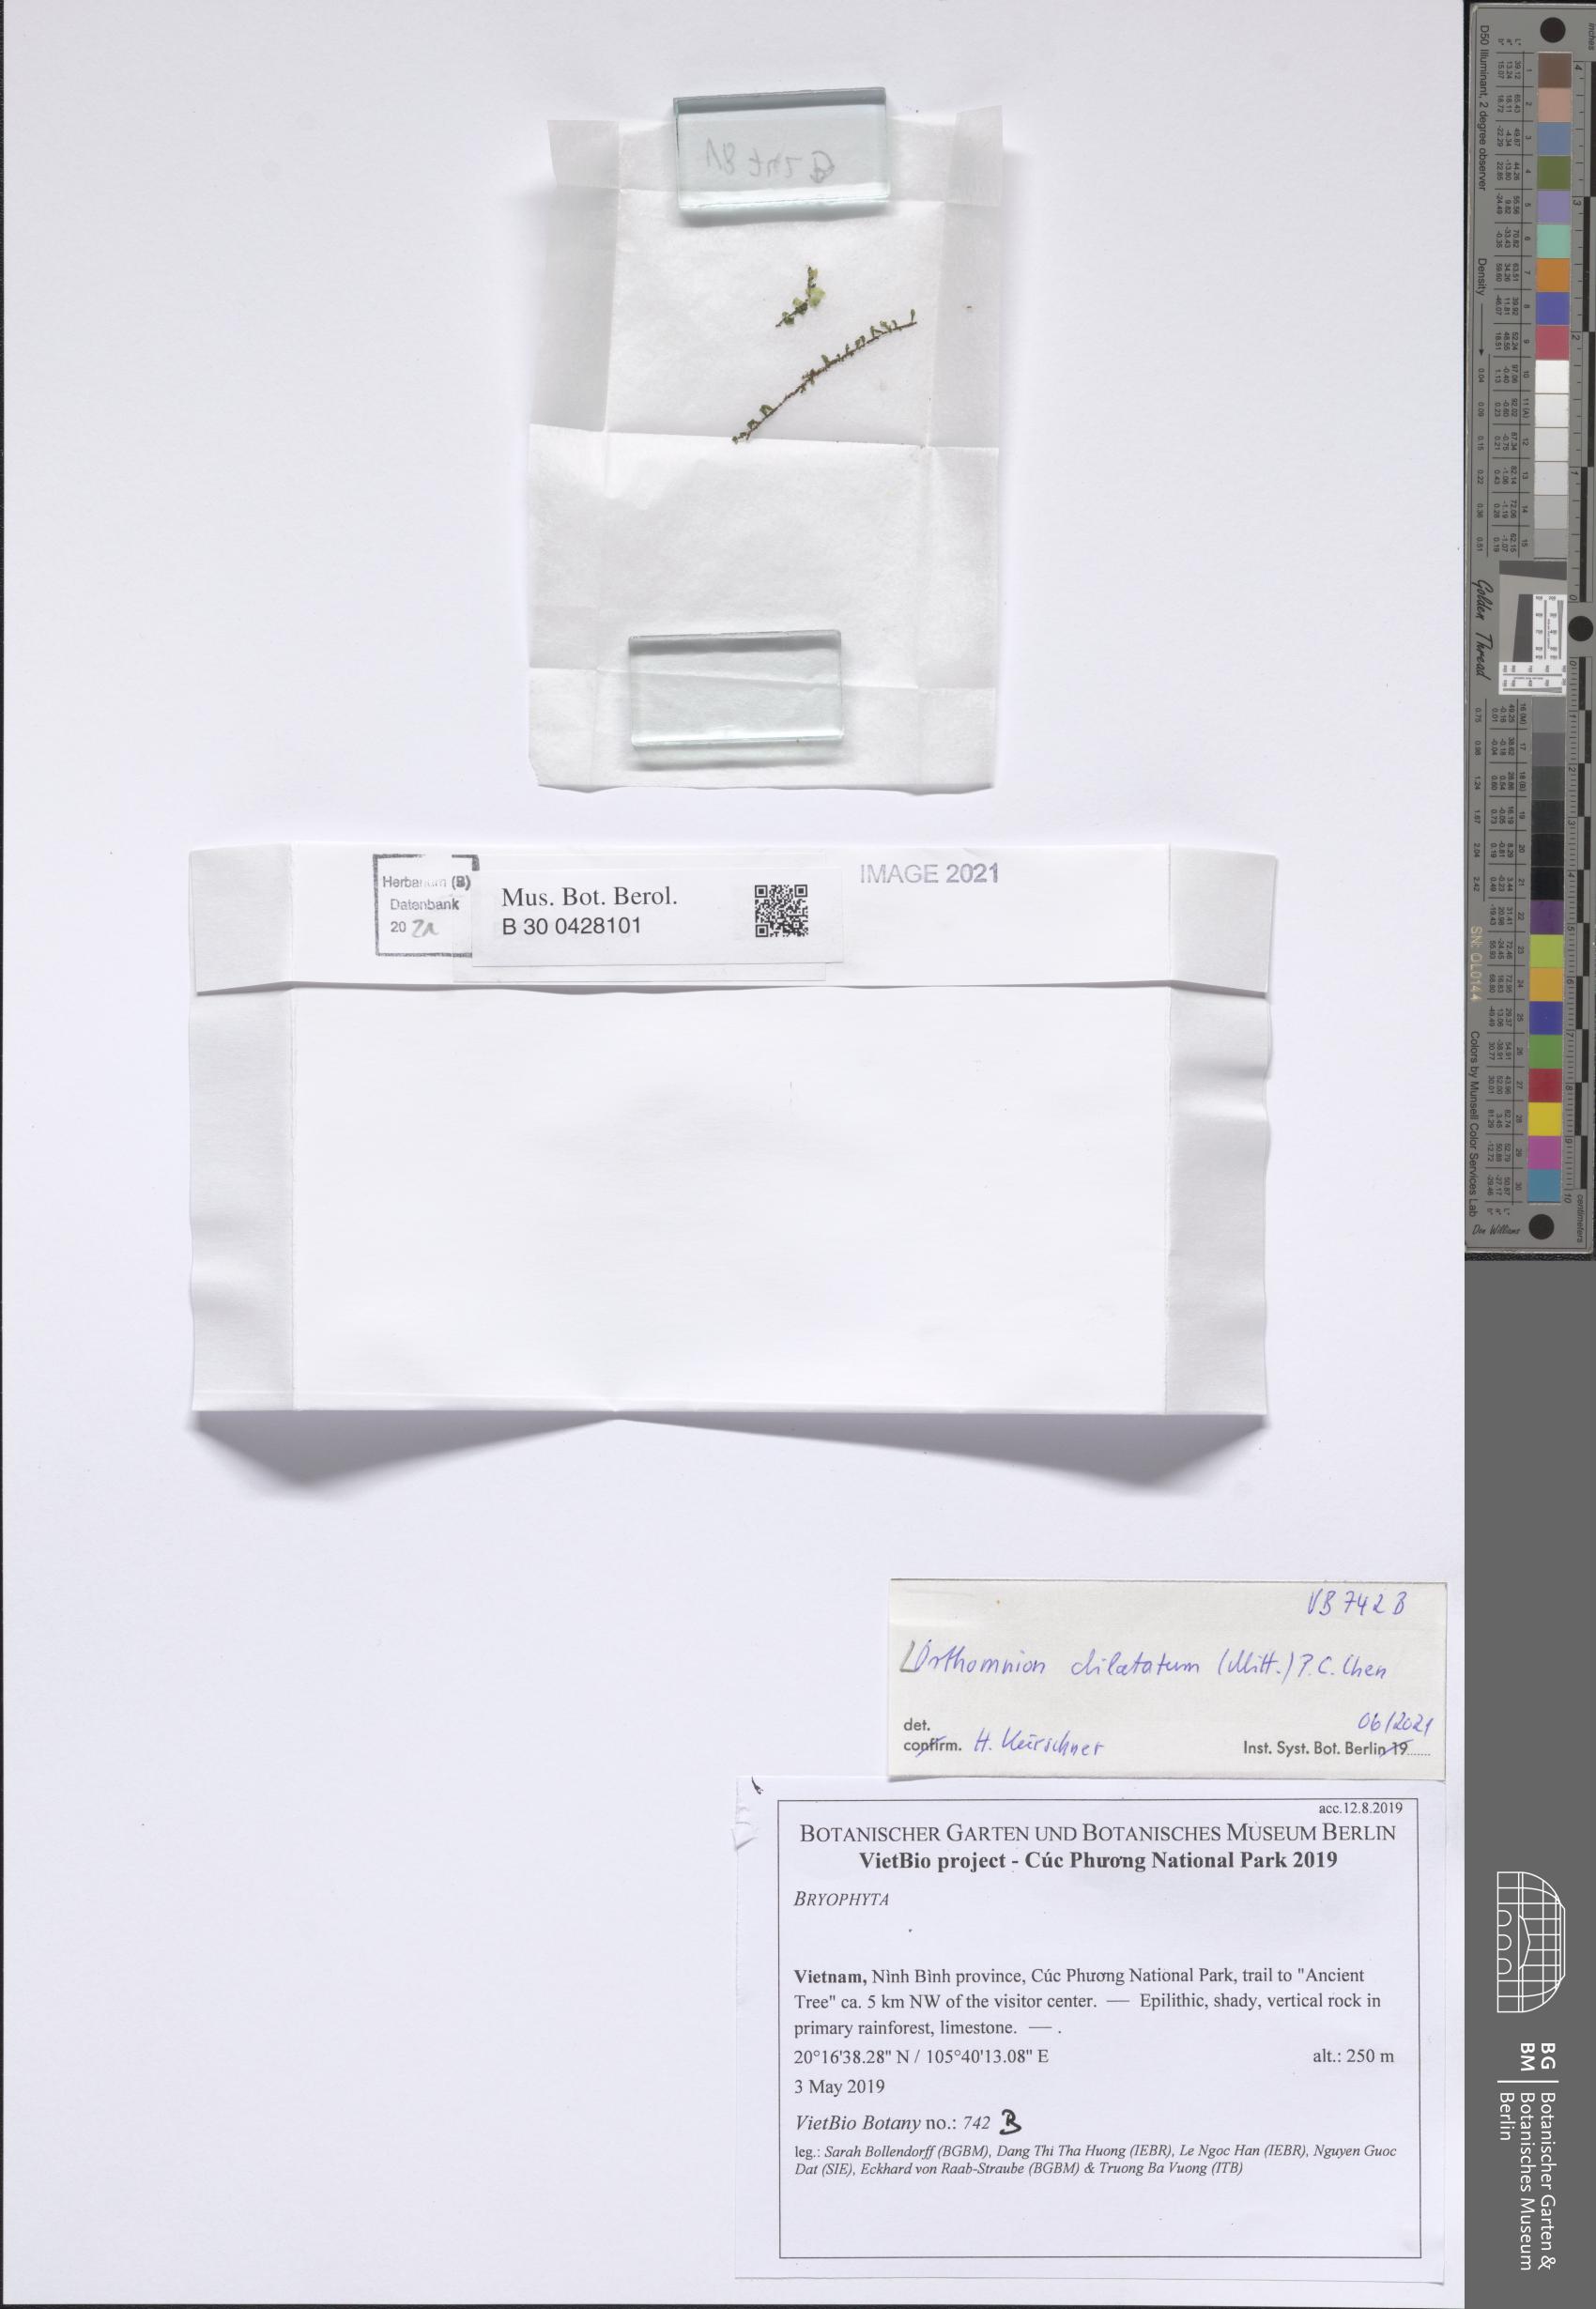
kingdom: Plantae
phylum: Bryophyta
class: Bryopsida
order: Bryales
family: Mniaceae
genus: Orthomnion
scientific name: Orthomnion dilatatum
